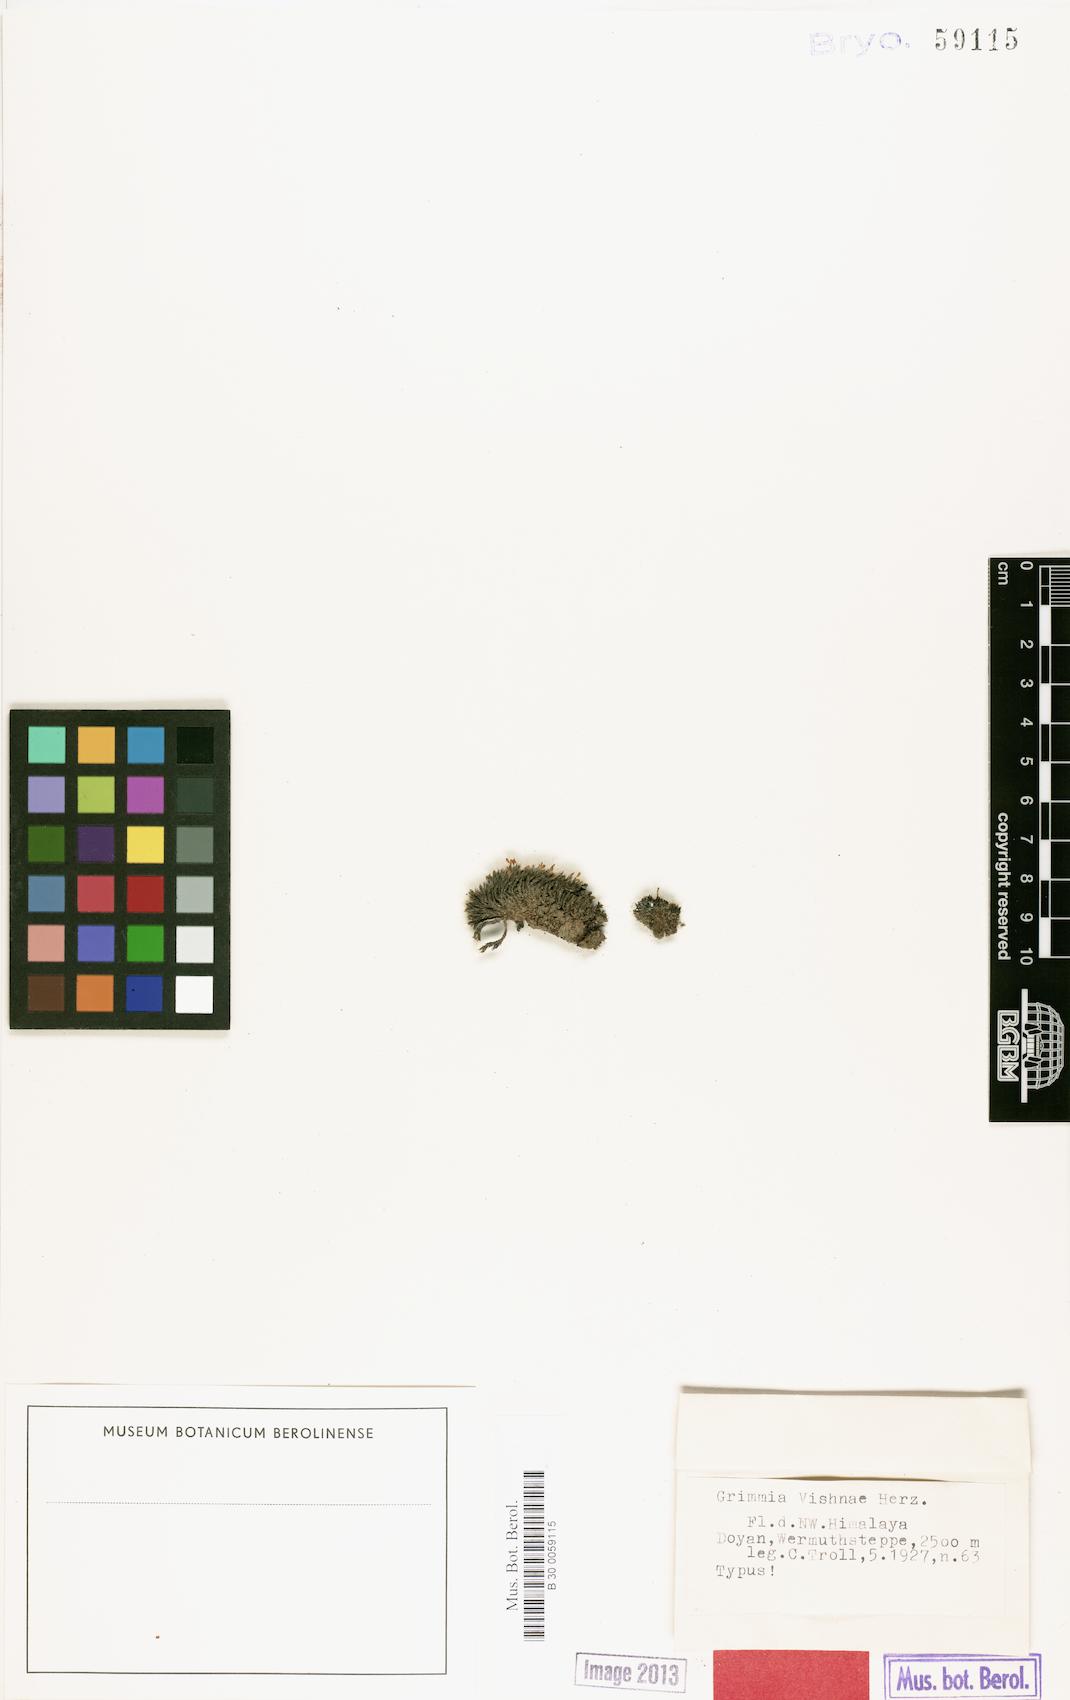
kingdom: Plantae
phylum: Bryophyta
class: Bryopsida
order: Grimmiales
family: Grimmiaceae
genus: Grimmia
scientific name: Grimmia
